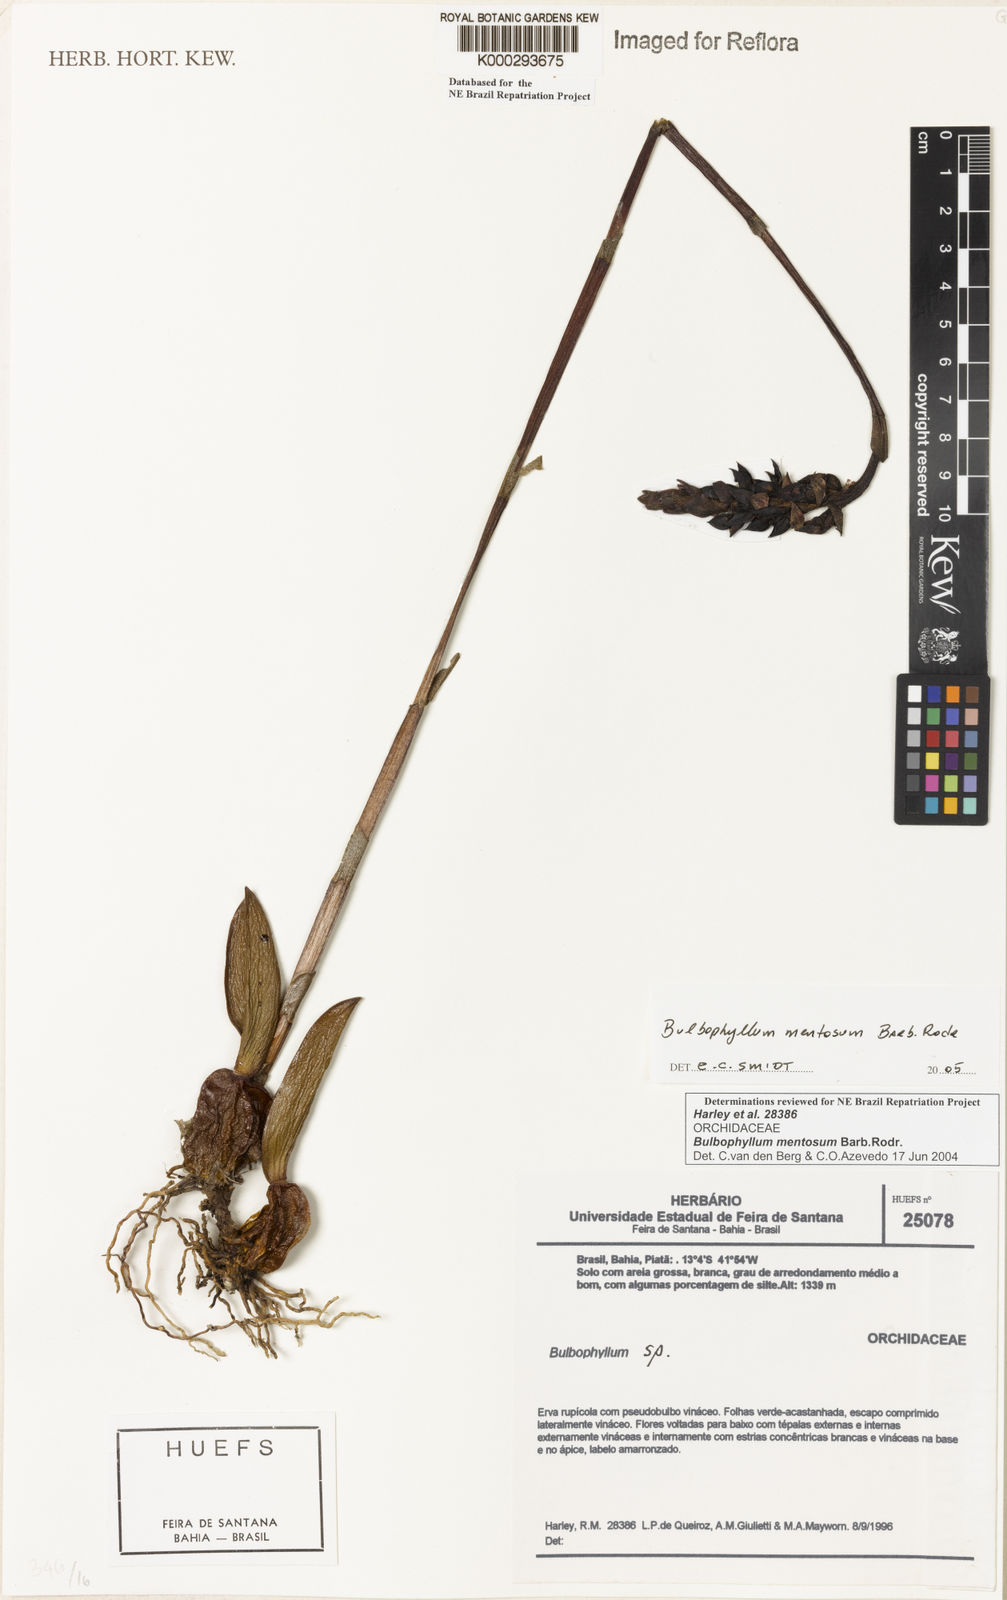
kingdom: Plantae
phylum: Tracheophyta
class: Liliopsida
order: Asparagales
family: Orchidaceae
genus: Bulbophyllum
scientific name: Bulbophyllum mentosum
